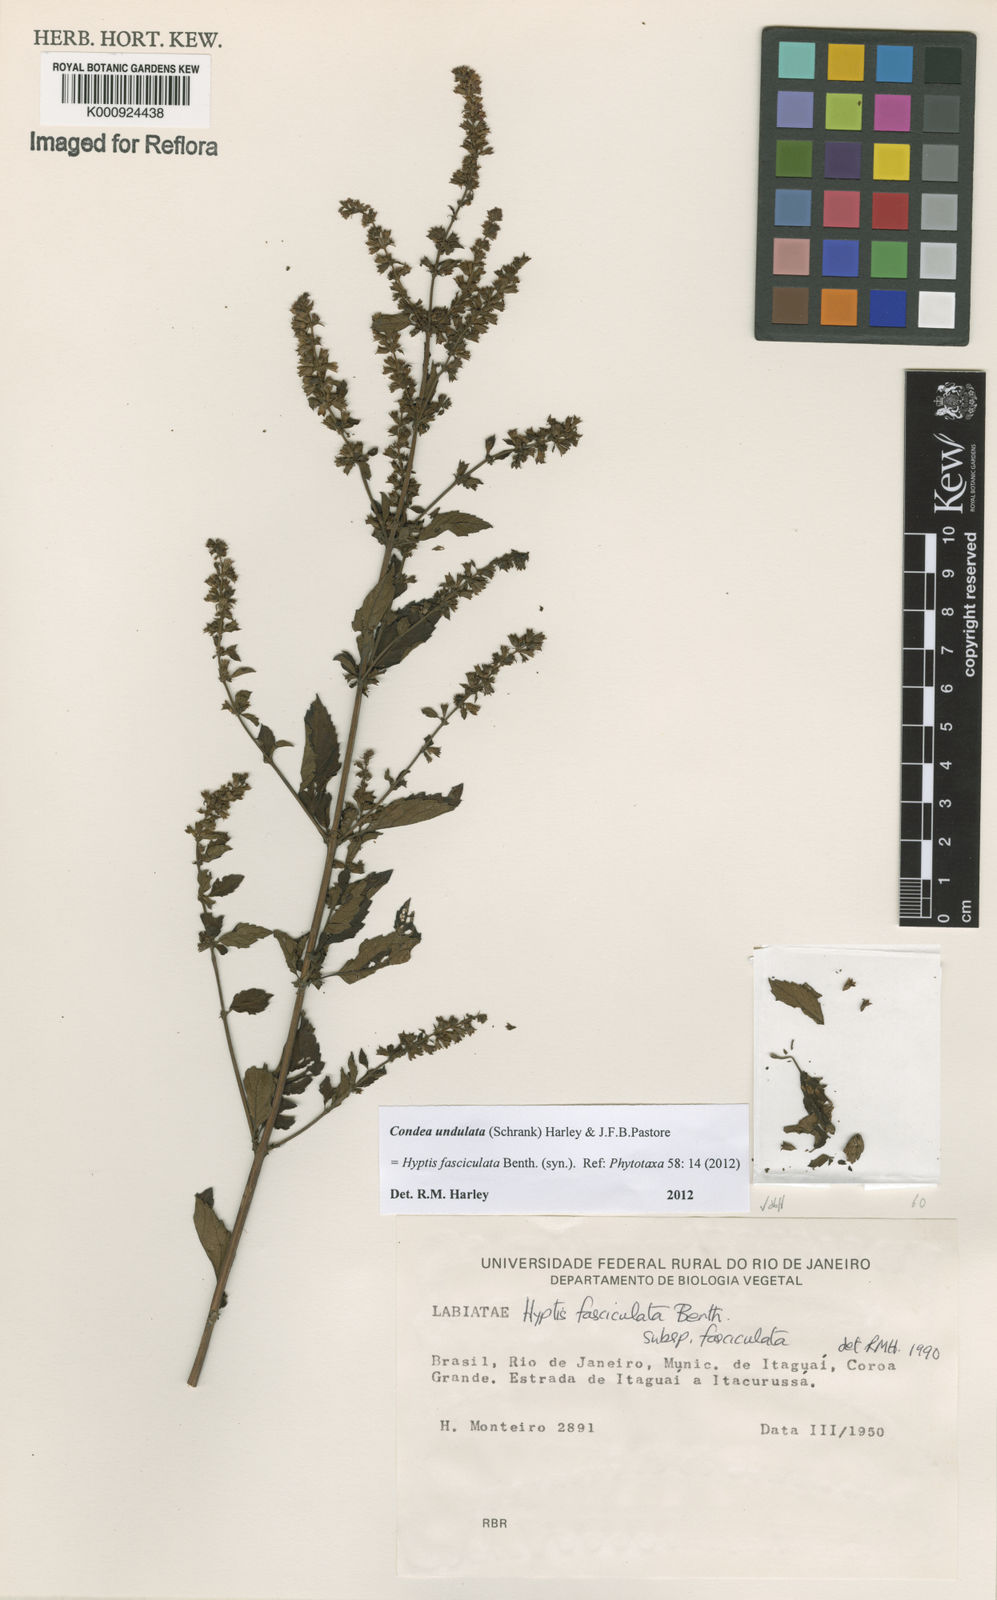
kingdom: Plantae
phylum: Tracheophyta
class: Magnoliopsida
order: Lamiales
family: Lamiaceae
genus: Condea
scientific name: Condea undulata
